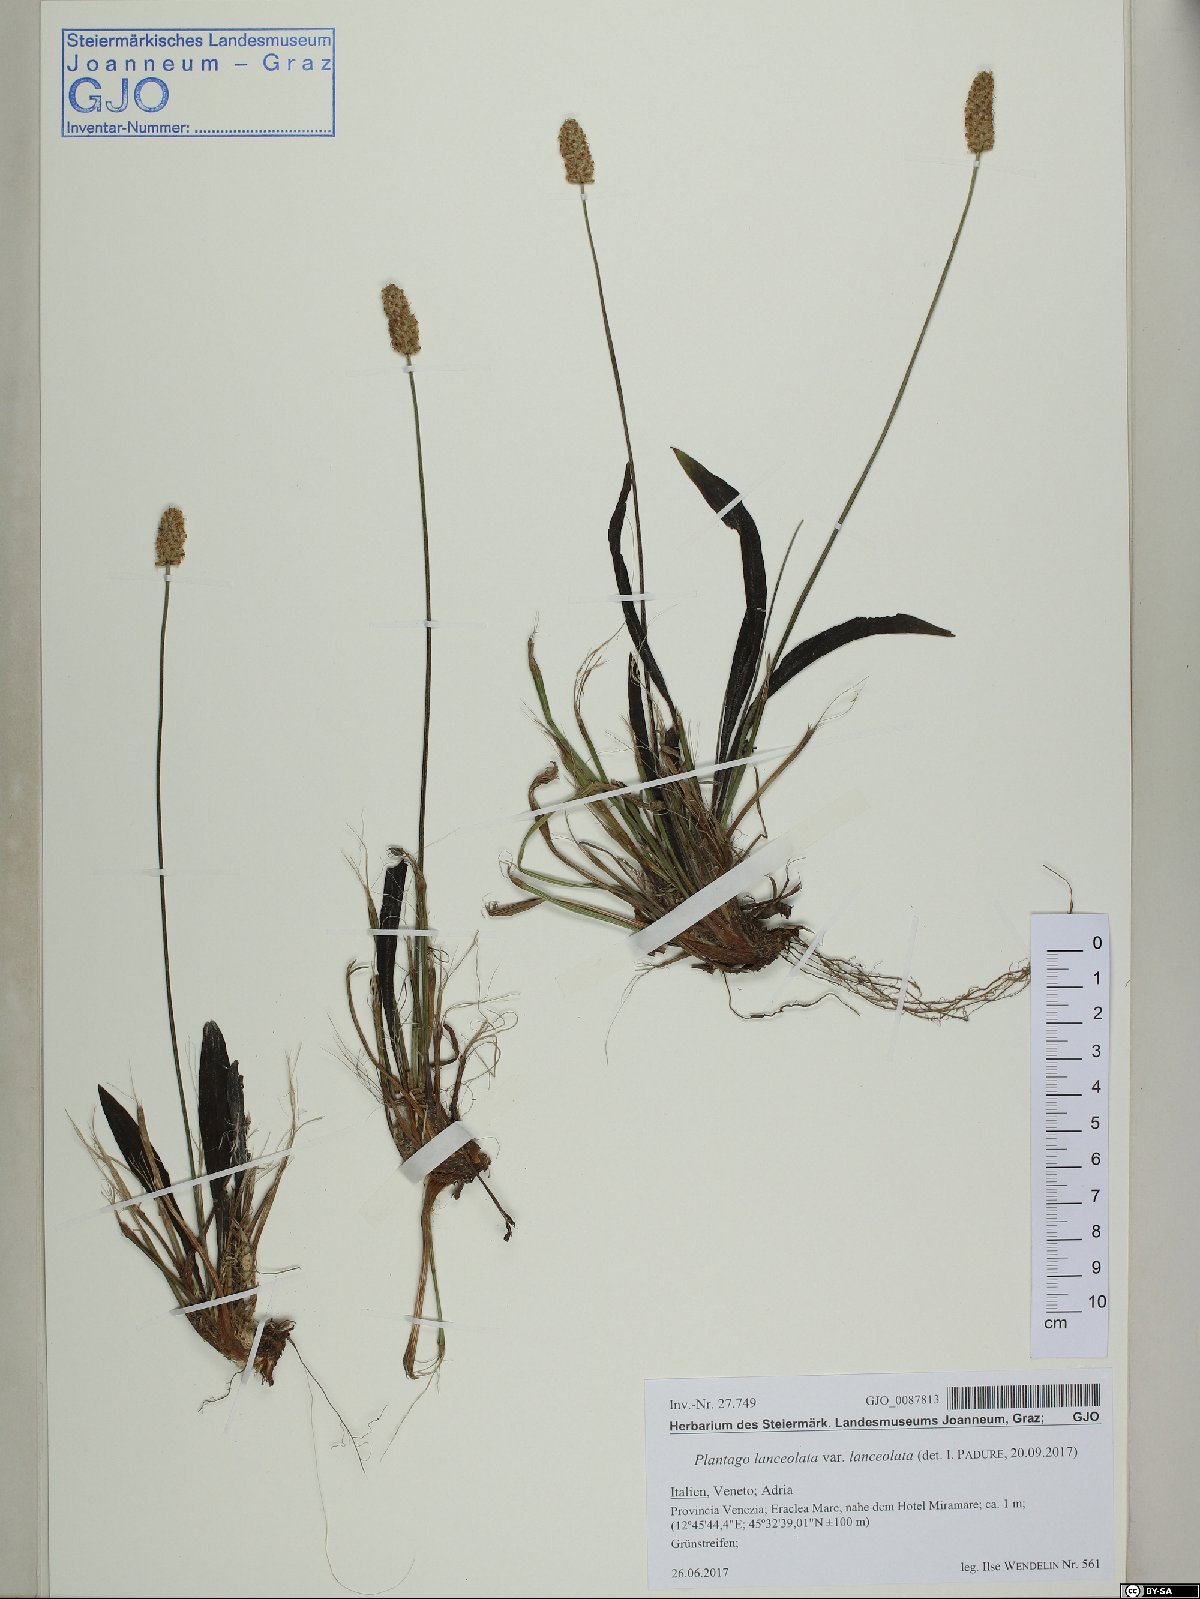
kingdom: Plantae
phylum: Tracheophyta
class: Magnoliopsida
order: Lamiales
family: Plantaginaceae
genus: Plantago
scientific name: Plantago lanceolata
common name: Ribwort plantain
